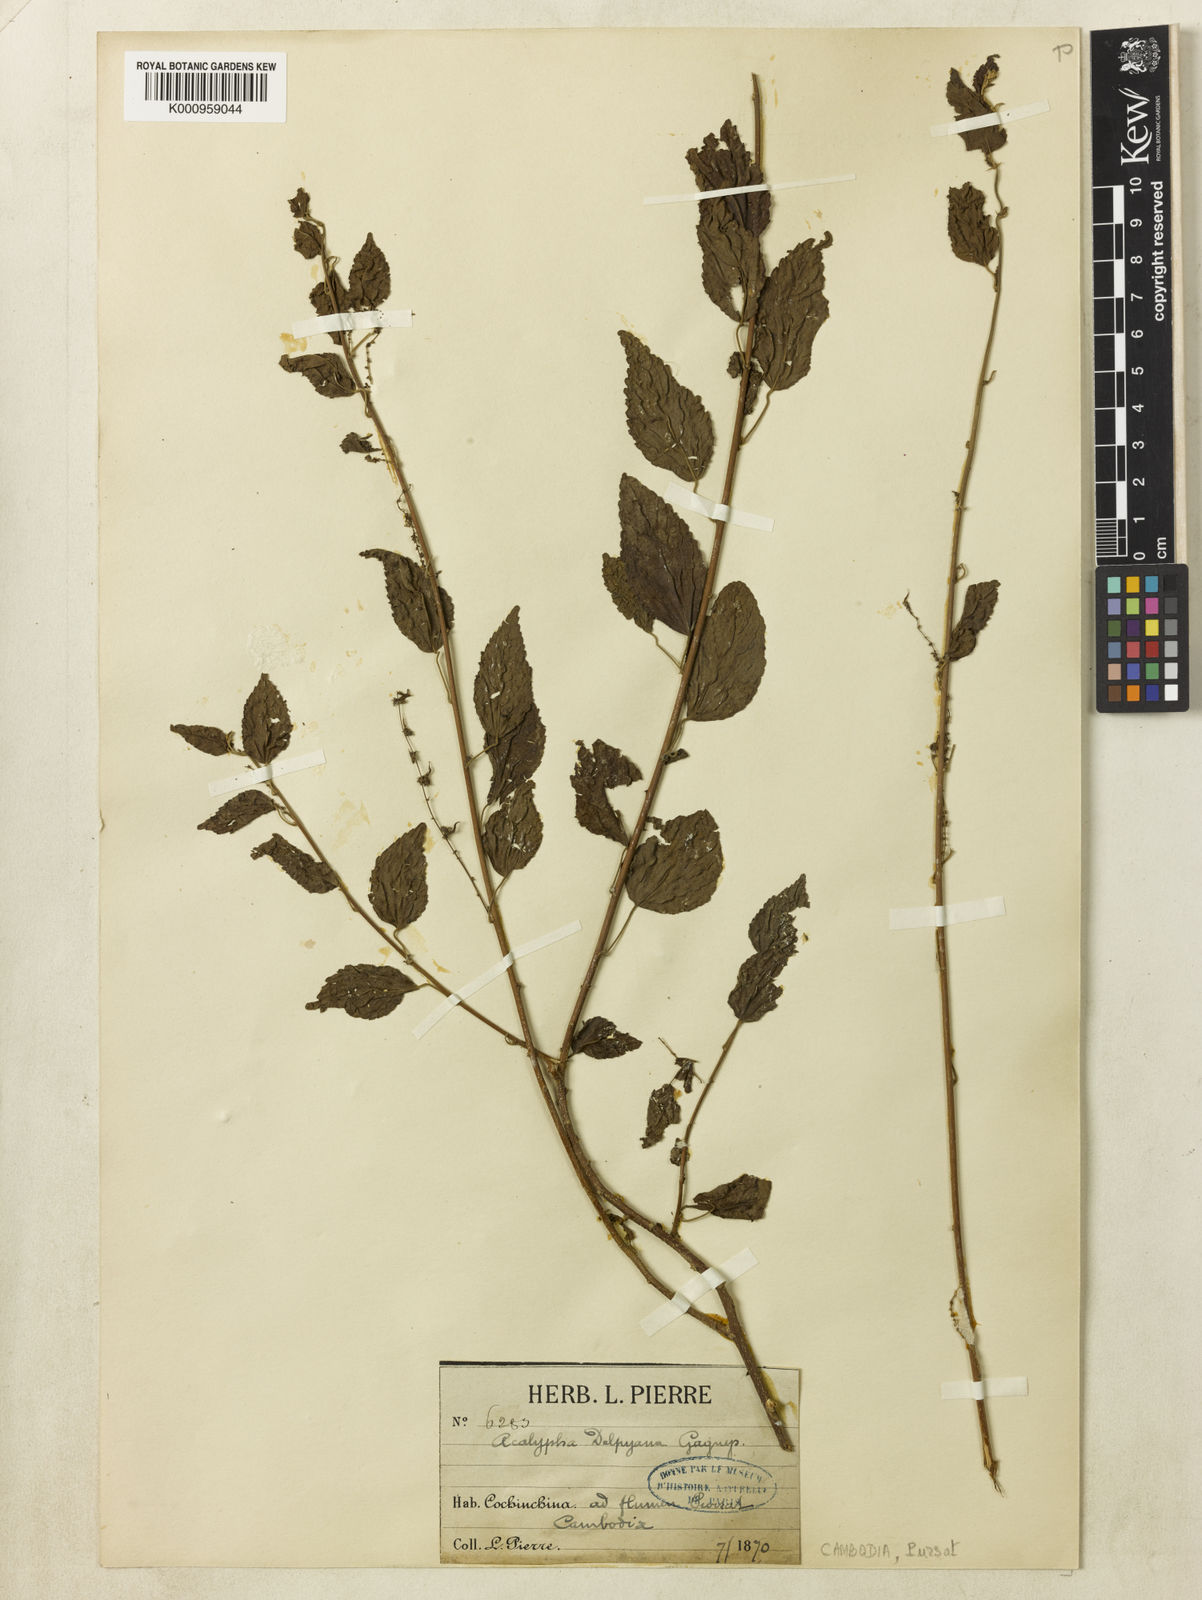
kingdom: Plantae
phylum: Tracheophyta
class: Magnoliopsida
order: Malpighiales
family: Euphorbiaceae
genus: Acalypha
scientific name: Acalypha delpyana
